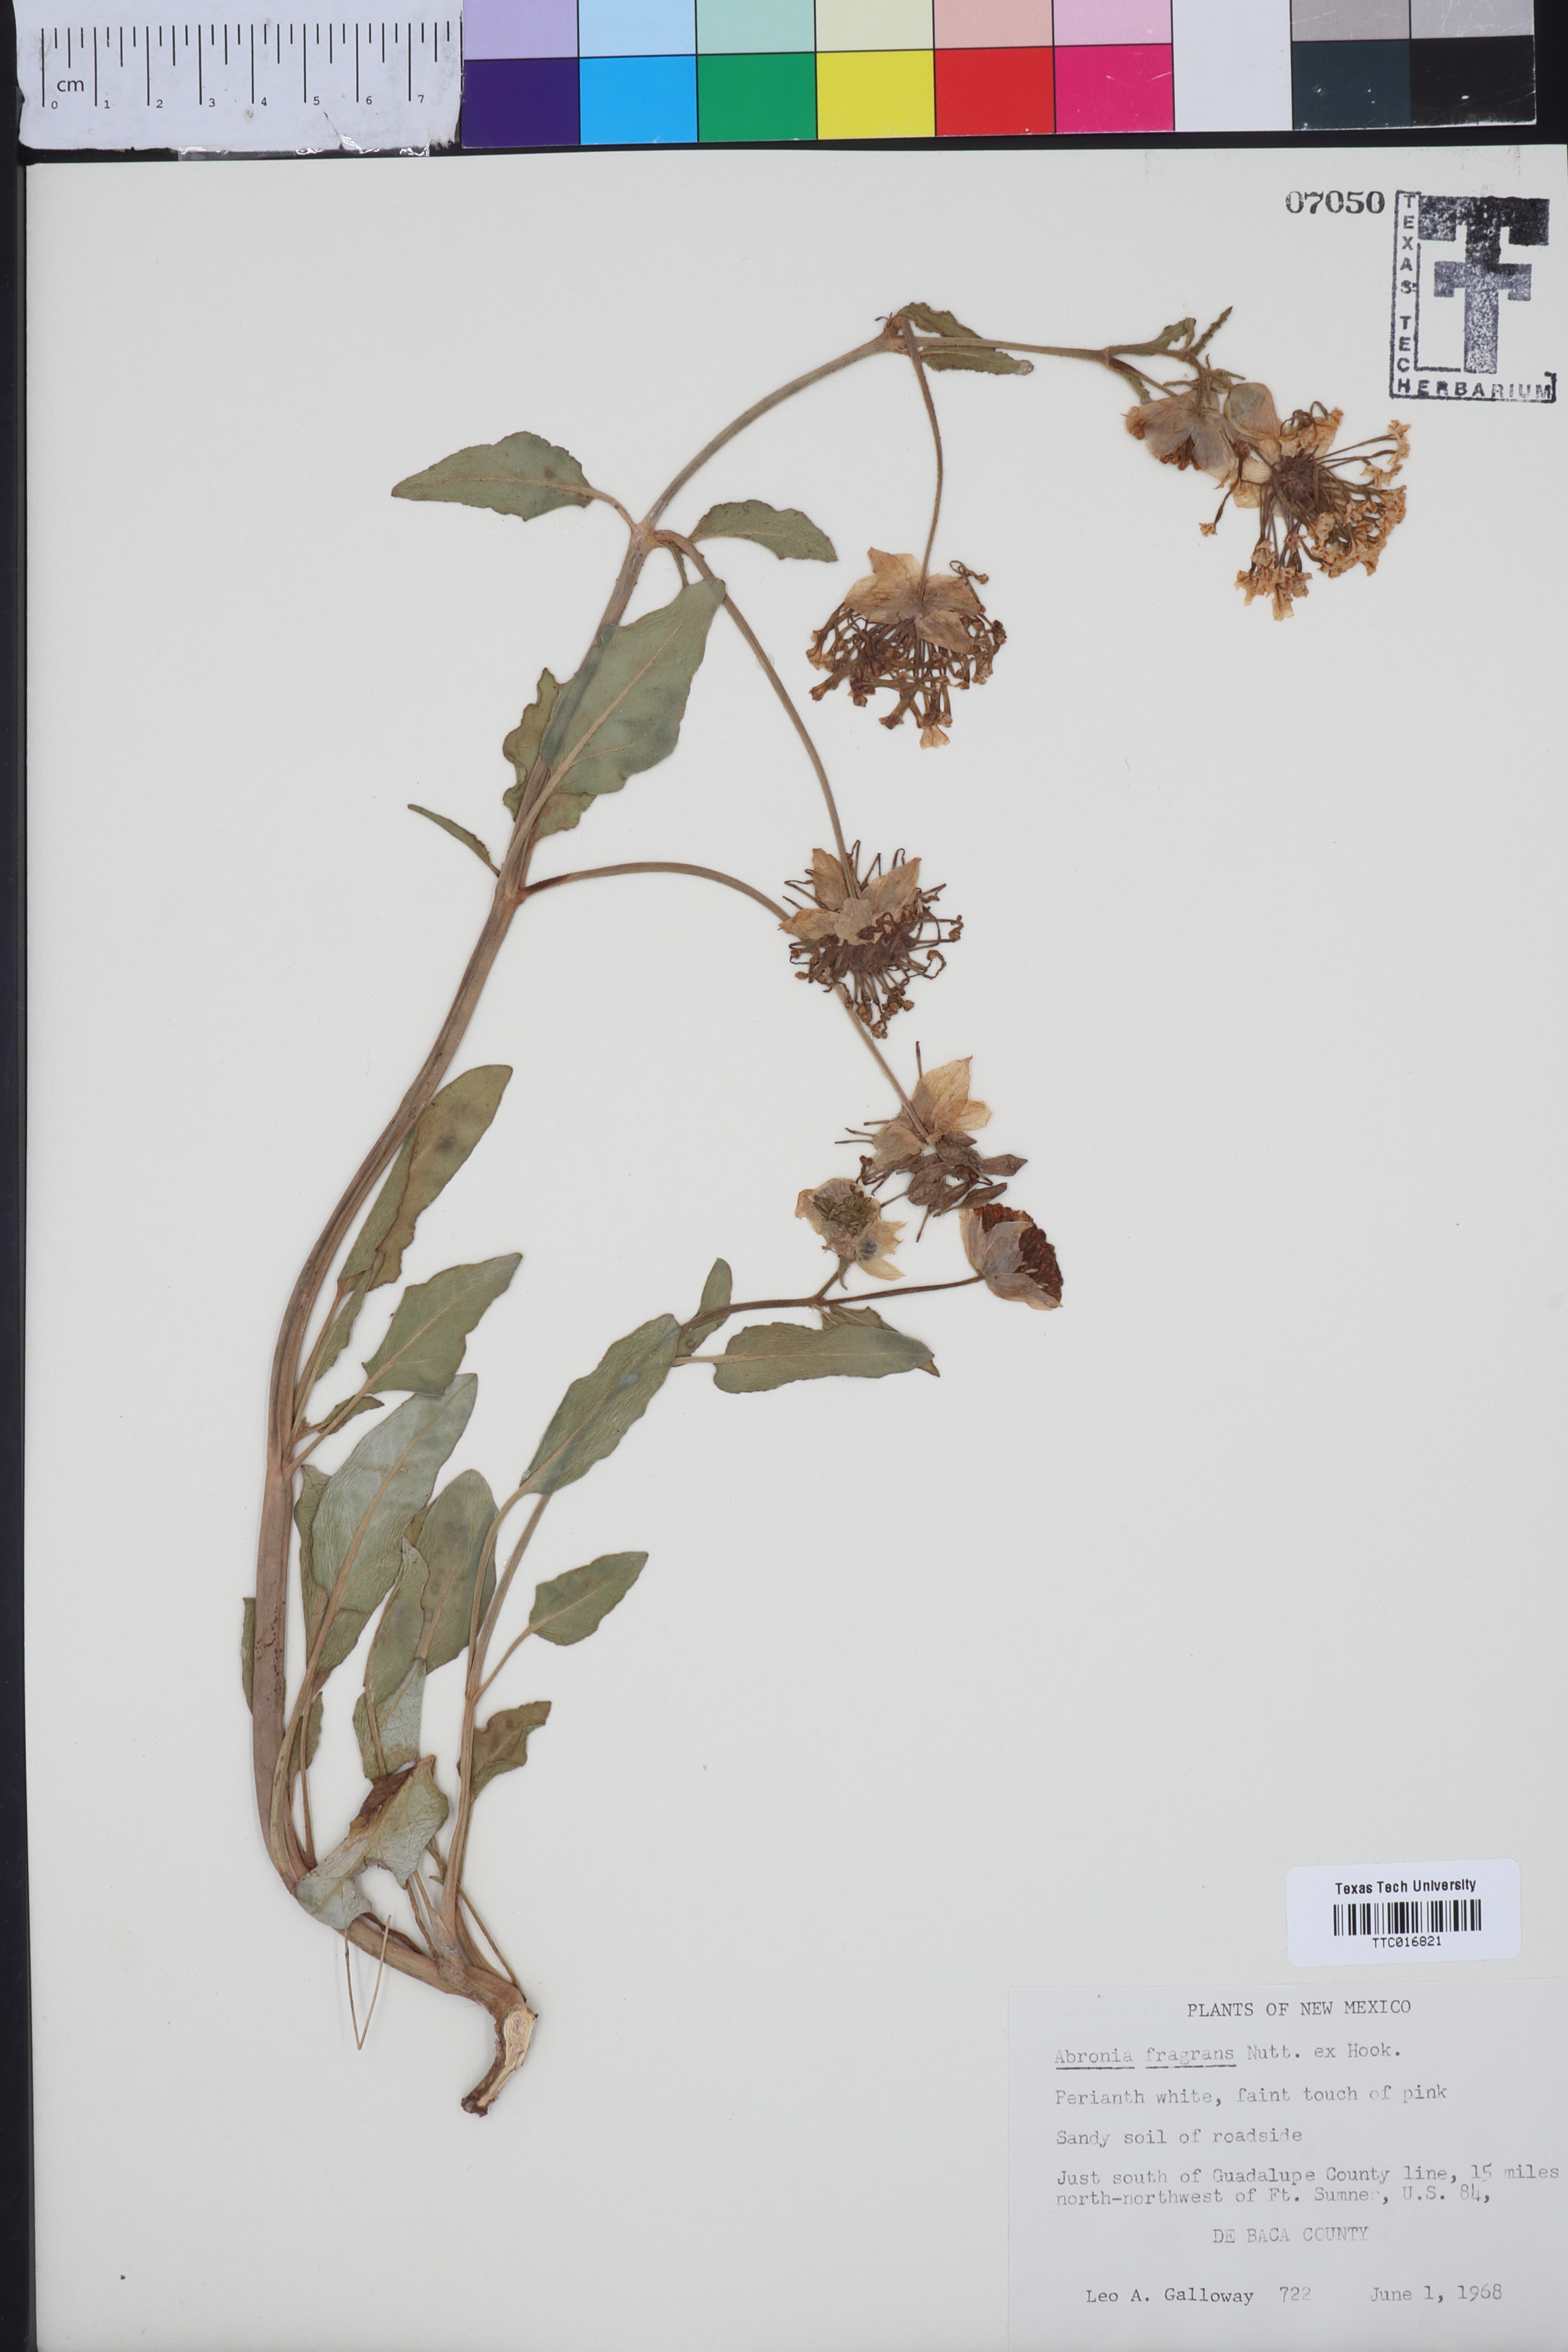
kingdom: Plantae
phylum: Tracheophyta
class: Magnoliopsida
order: Caryophyllales
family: Nyctaginaceae
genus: Abronia
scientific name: Abronia fragrans
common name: Fragrant sand-verbena
